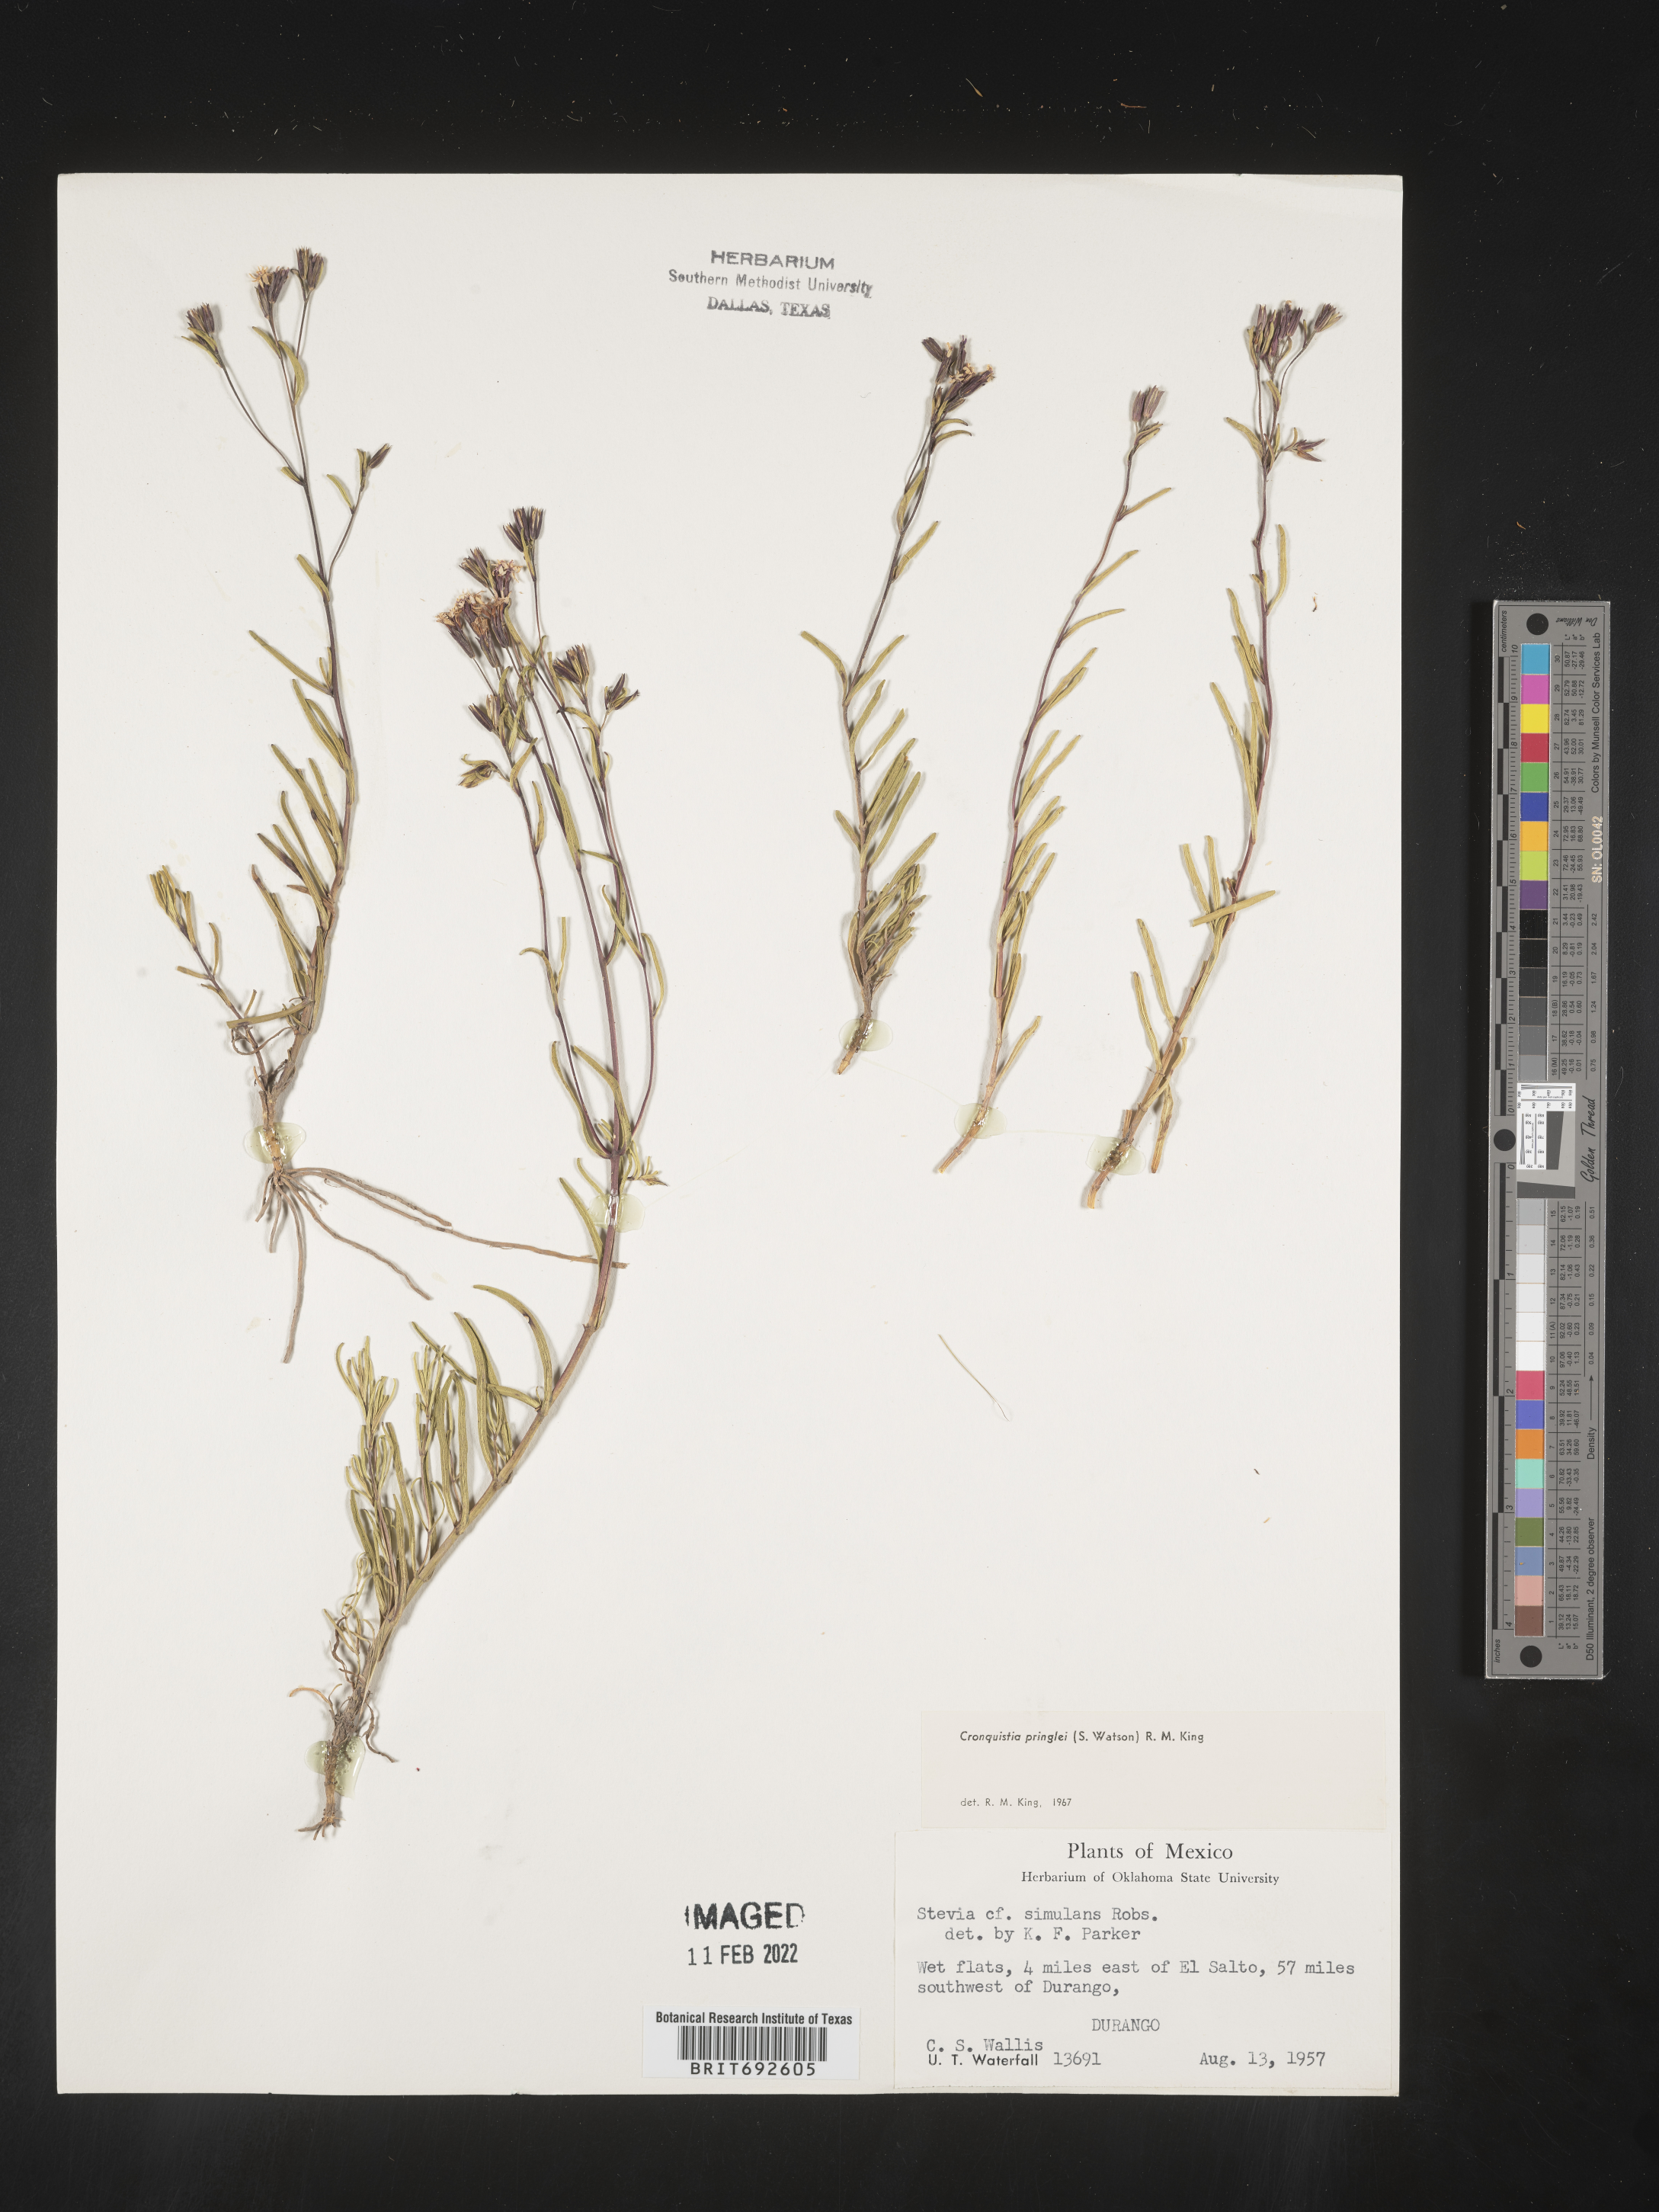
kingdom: Plantae
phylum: Tracheophyta
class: Magnoliopsida
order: Asterales
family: Asteraceae
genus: Carphochaete
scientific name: Carphochaete pringlei
